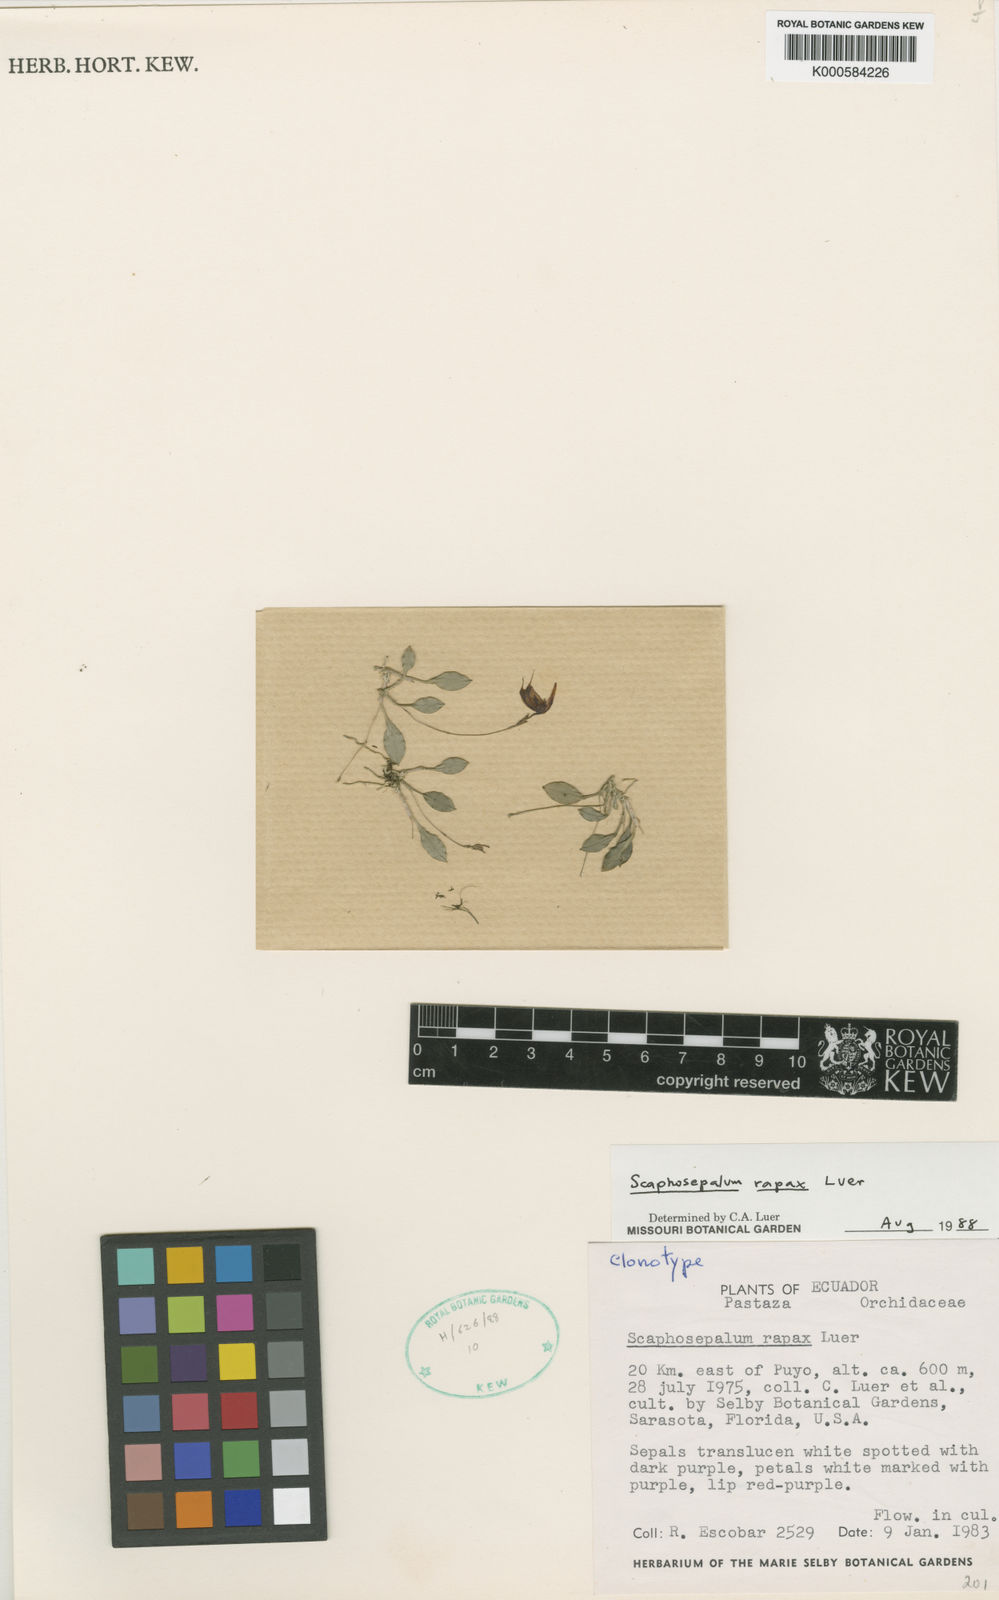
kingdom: Plantae
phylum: Tracheophyta
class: Liliopsida
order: Asparagales
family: Orchidaceae
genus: Scaphosepalum
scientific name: Scaphosepalum rapax
